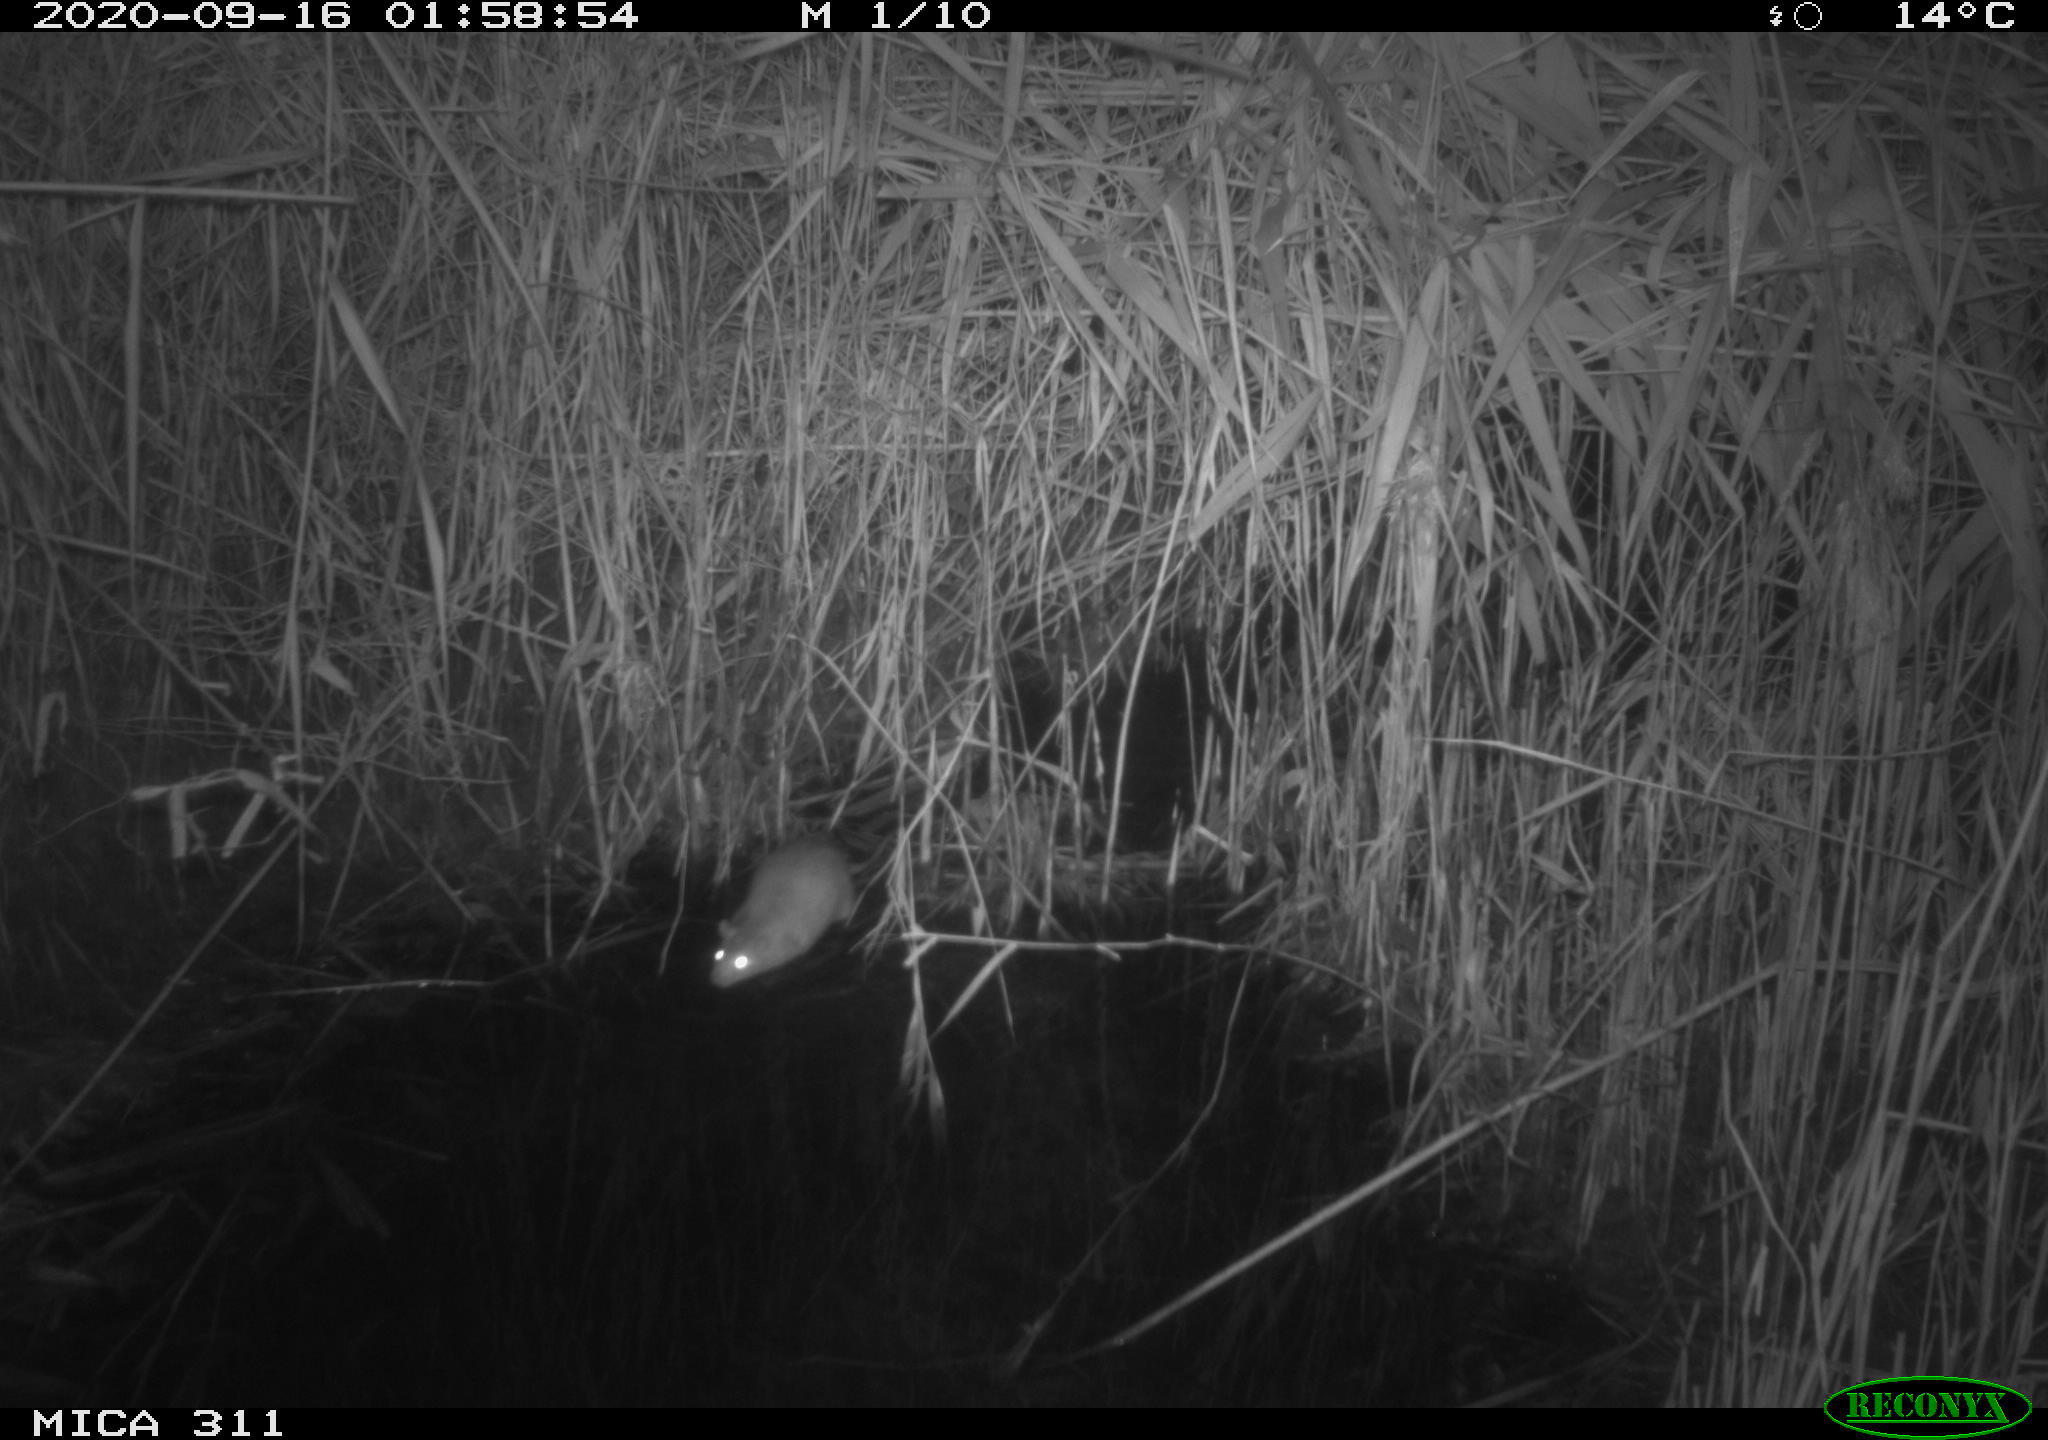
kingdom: Animalia
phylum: Chordata
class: Mammalia
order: Rodentia
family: Muridae
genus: Rattus
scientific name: Rattus norvegicus
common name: Brown rat
